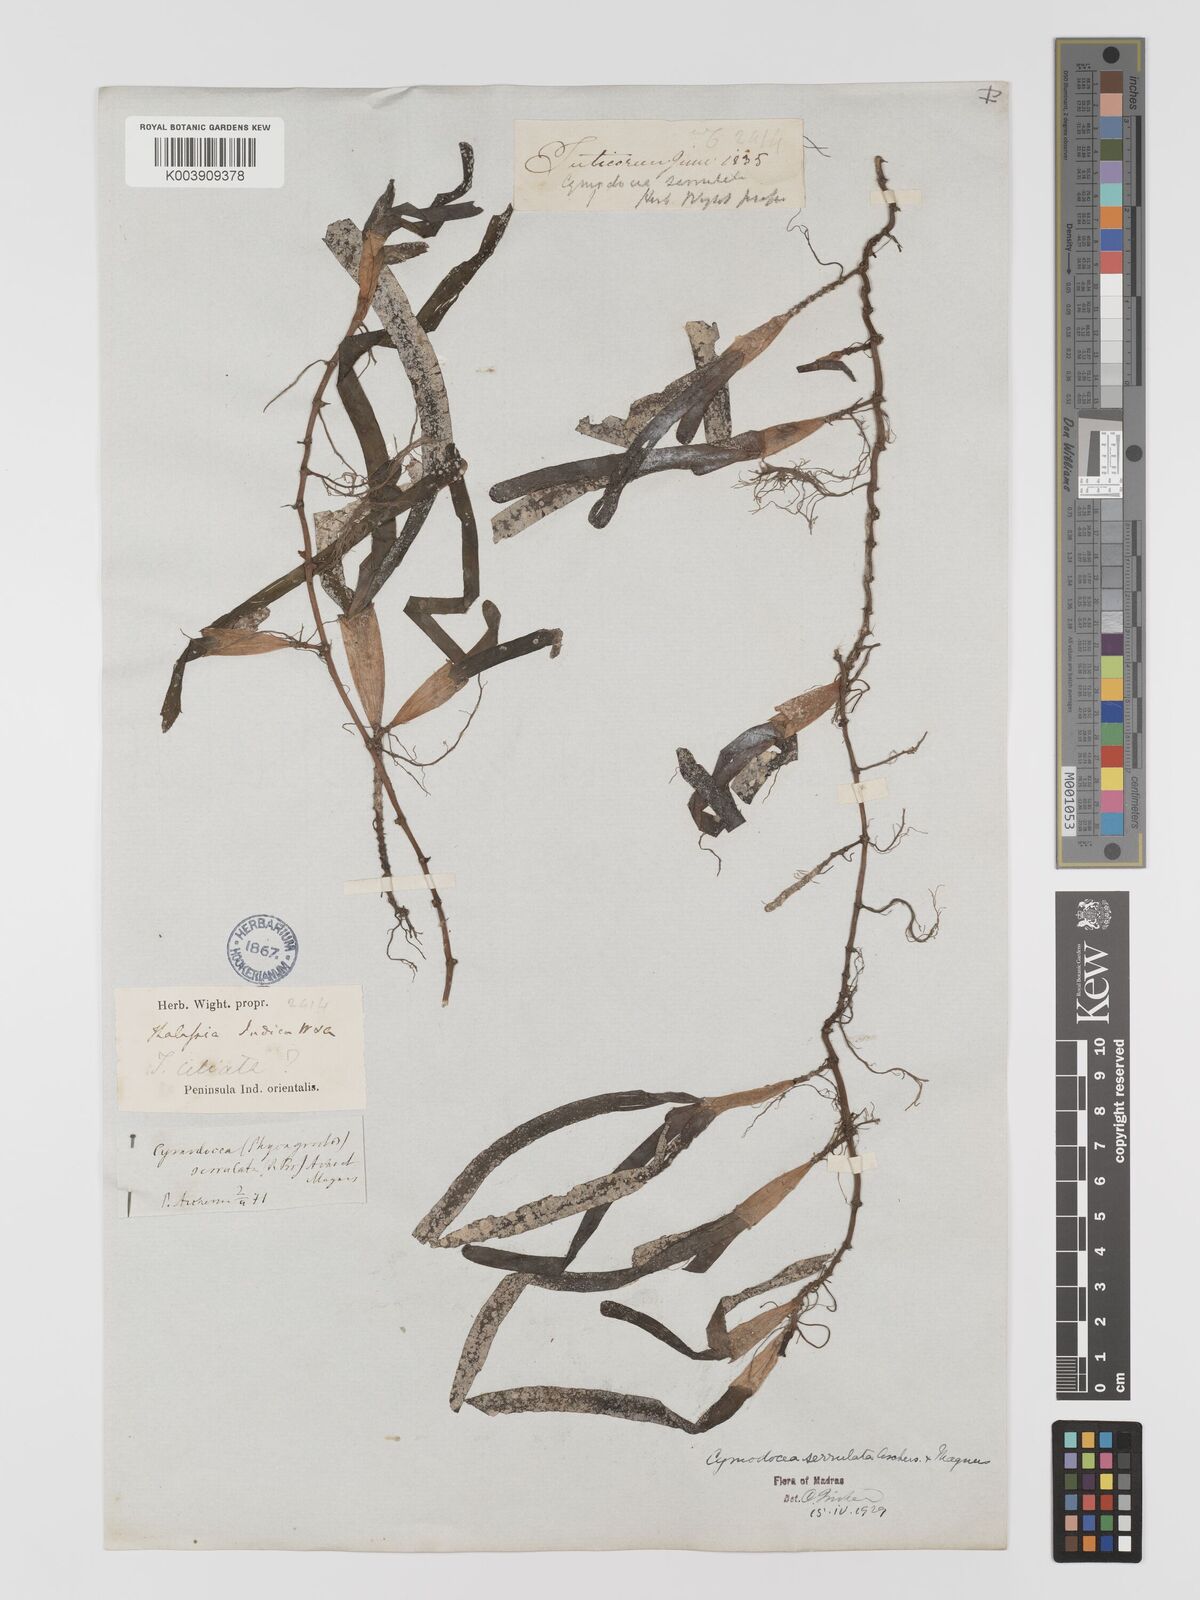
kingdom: Plantae
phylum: Tracheophyta
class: Liliopsida
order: Alismatales
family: Cymodoceaceae
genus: Oceana
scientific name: Oceana serrulata
